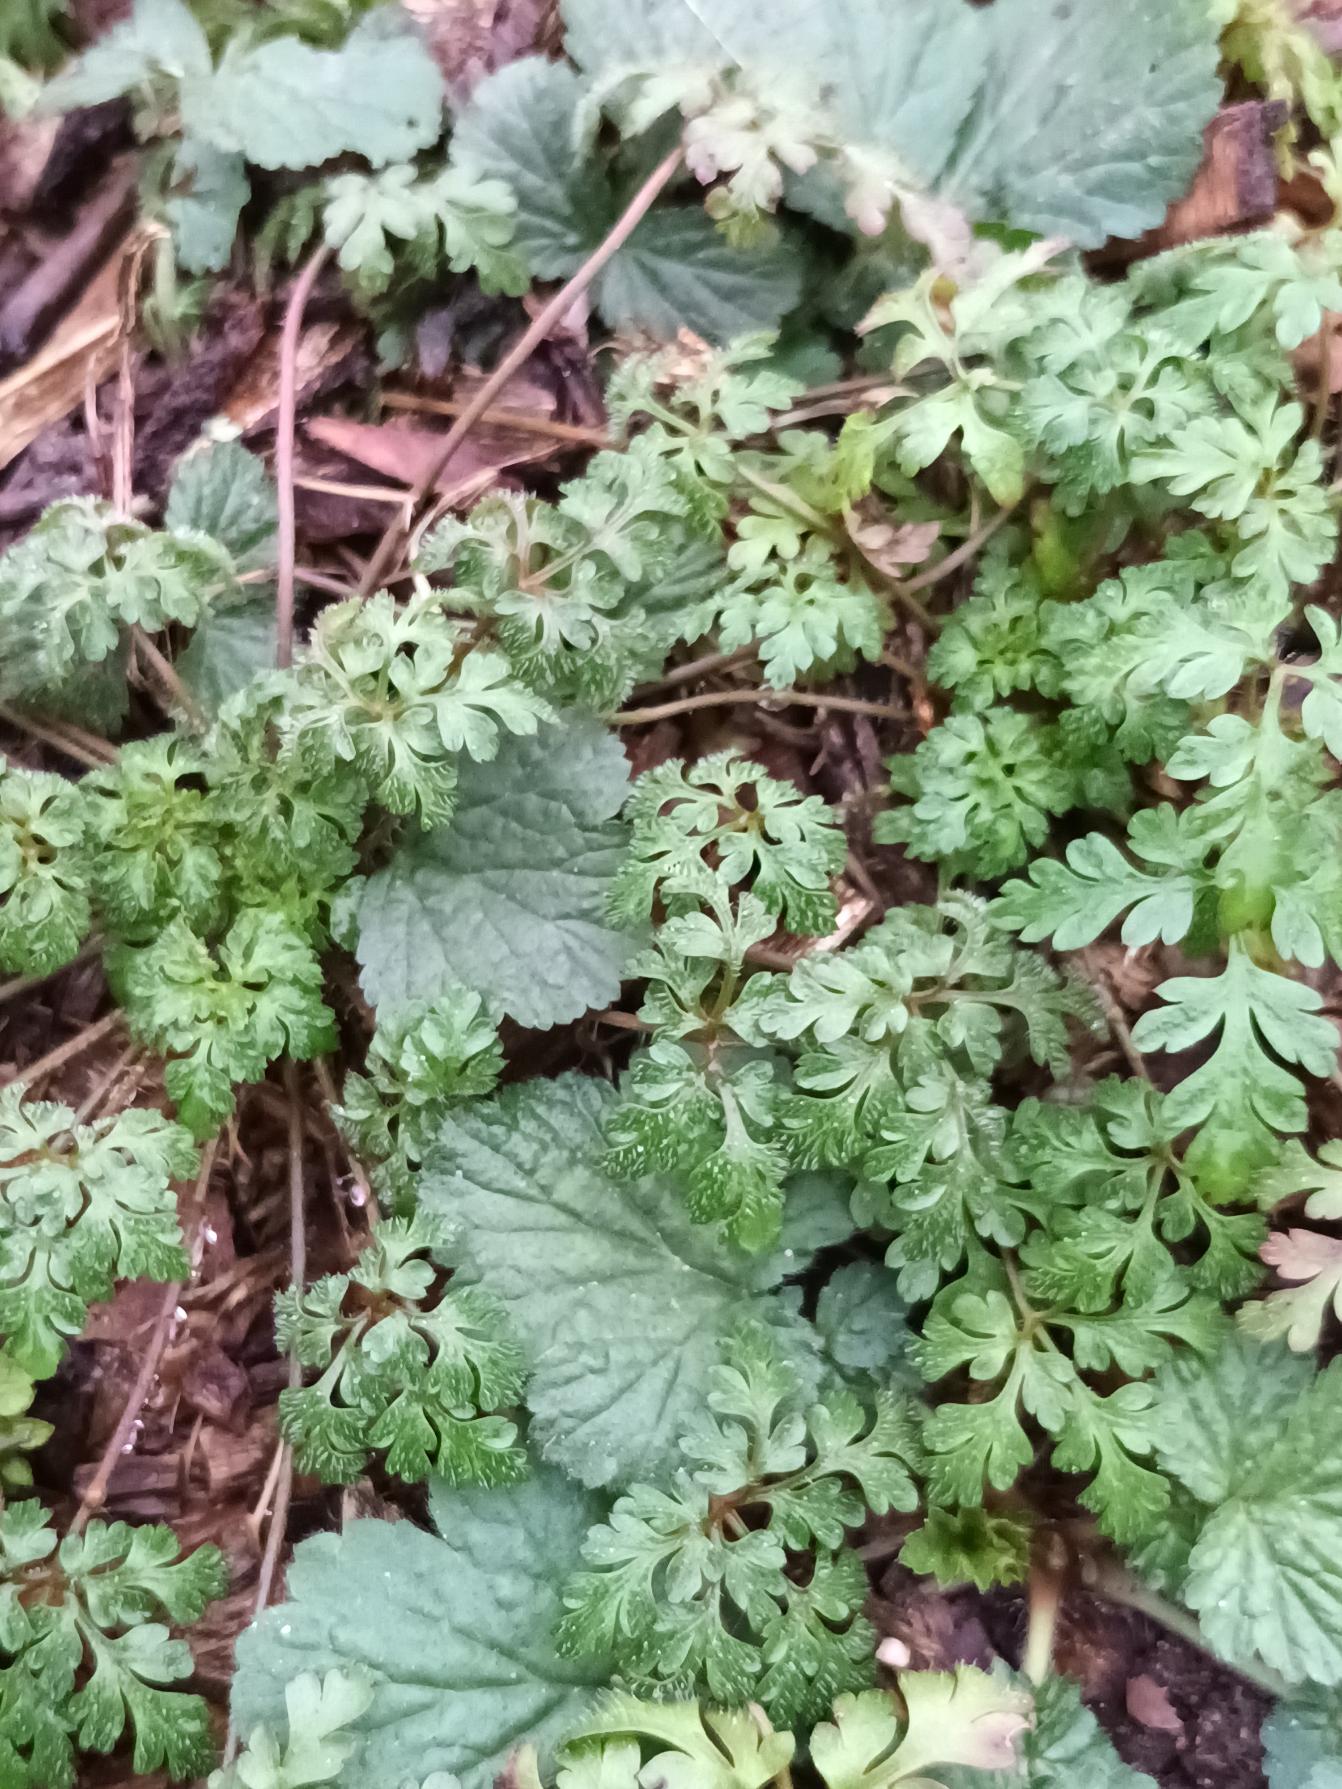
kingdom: Plantae
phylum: Tracheophyta
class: Magnoliopsida
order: Geraniales
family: Geraniaceae
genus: Geranium
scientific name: Geranium robertianum
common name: Stinkende storkenæb
